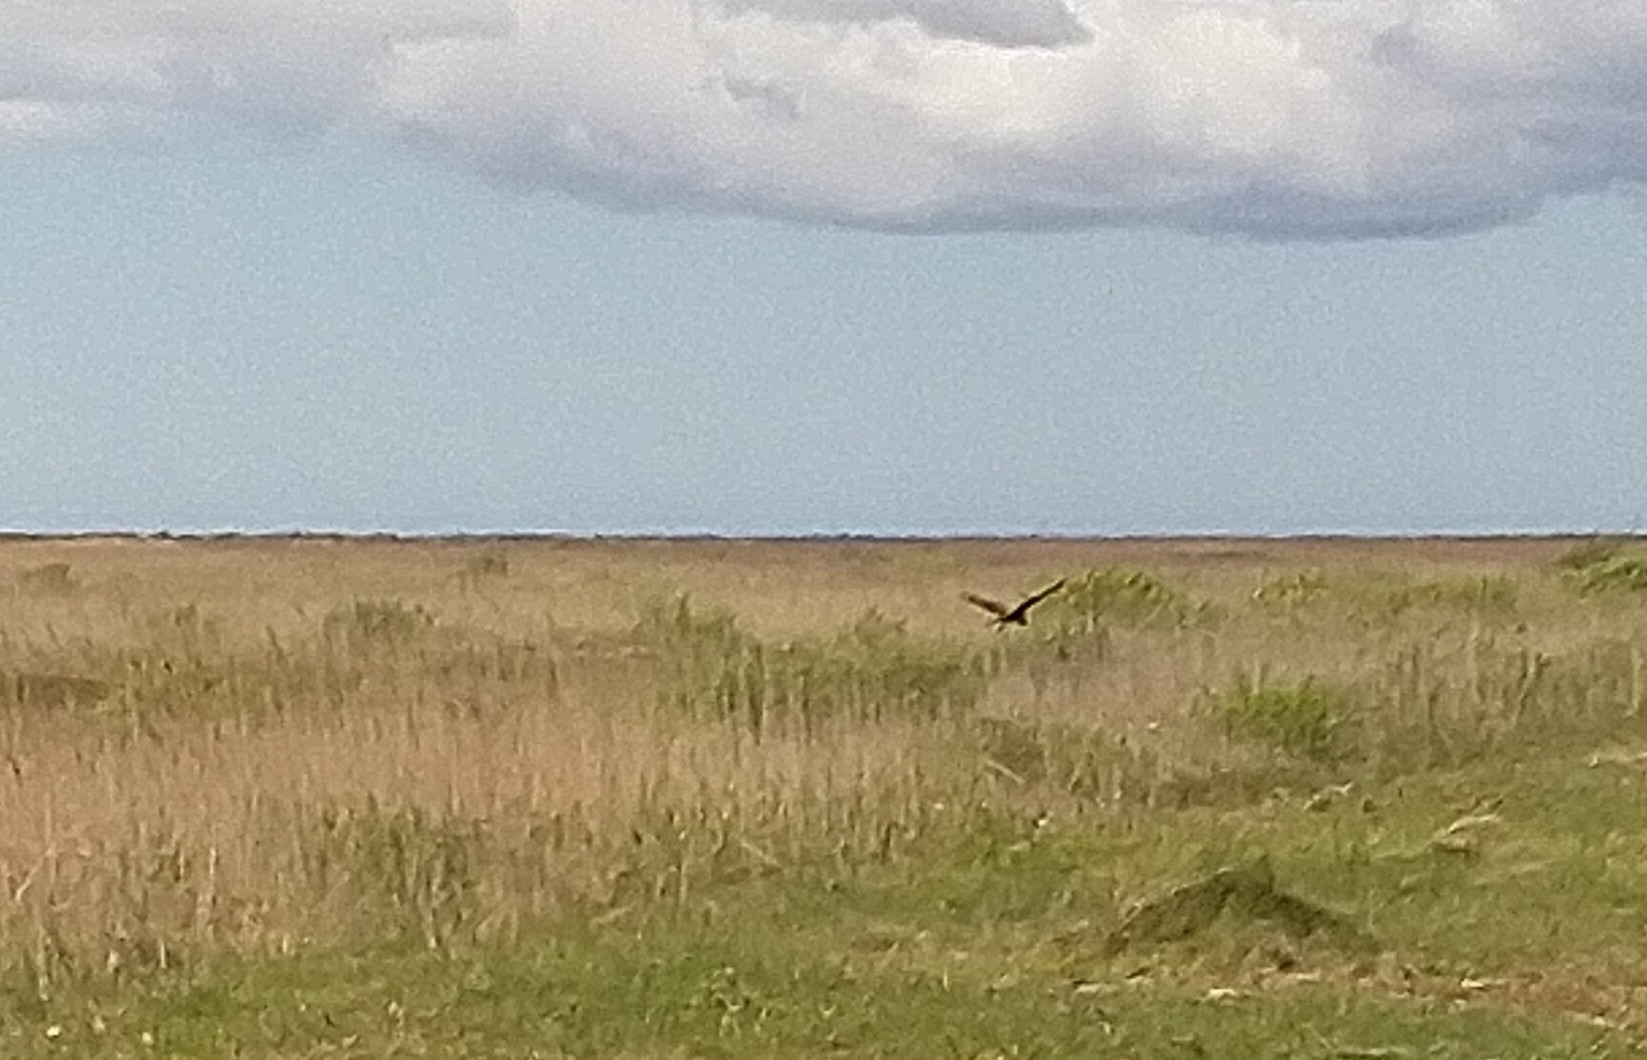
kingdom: Animalia
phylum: Chordata
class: Aves
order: Accipitriformes
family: Accipitridae
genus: Circus
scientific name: Circus aeruginosus
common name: Rørhøg
